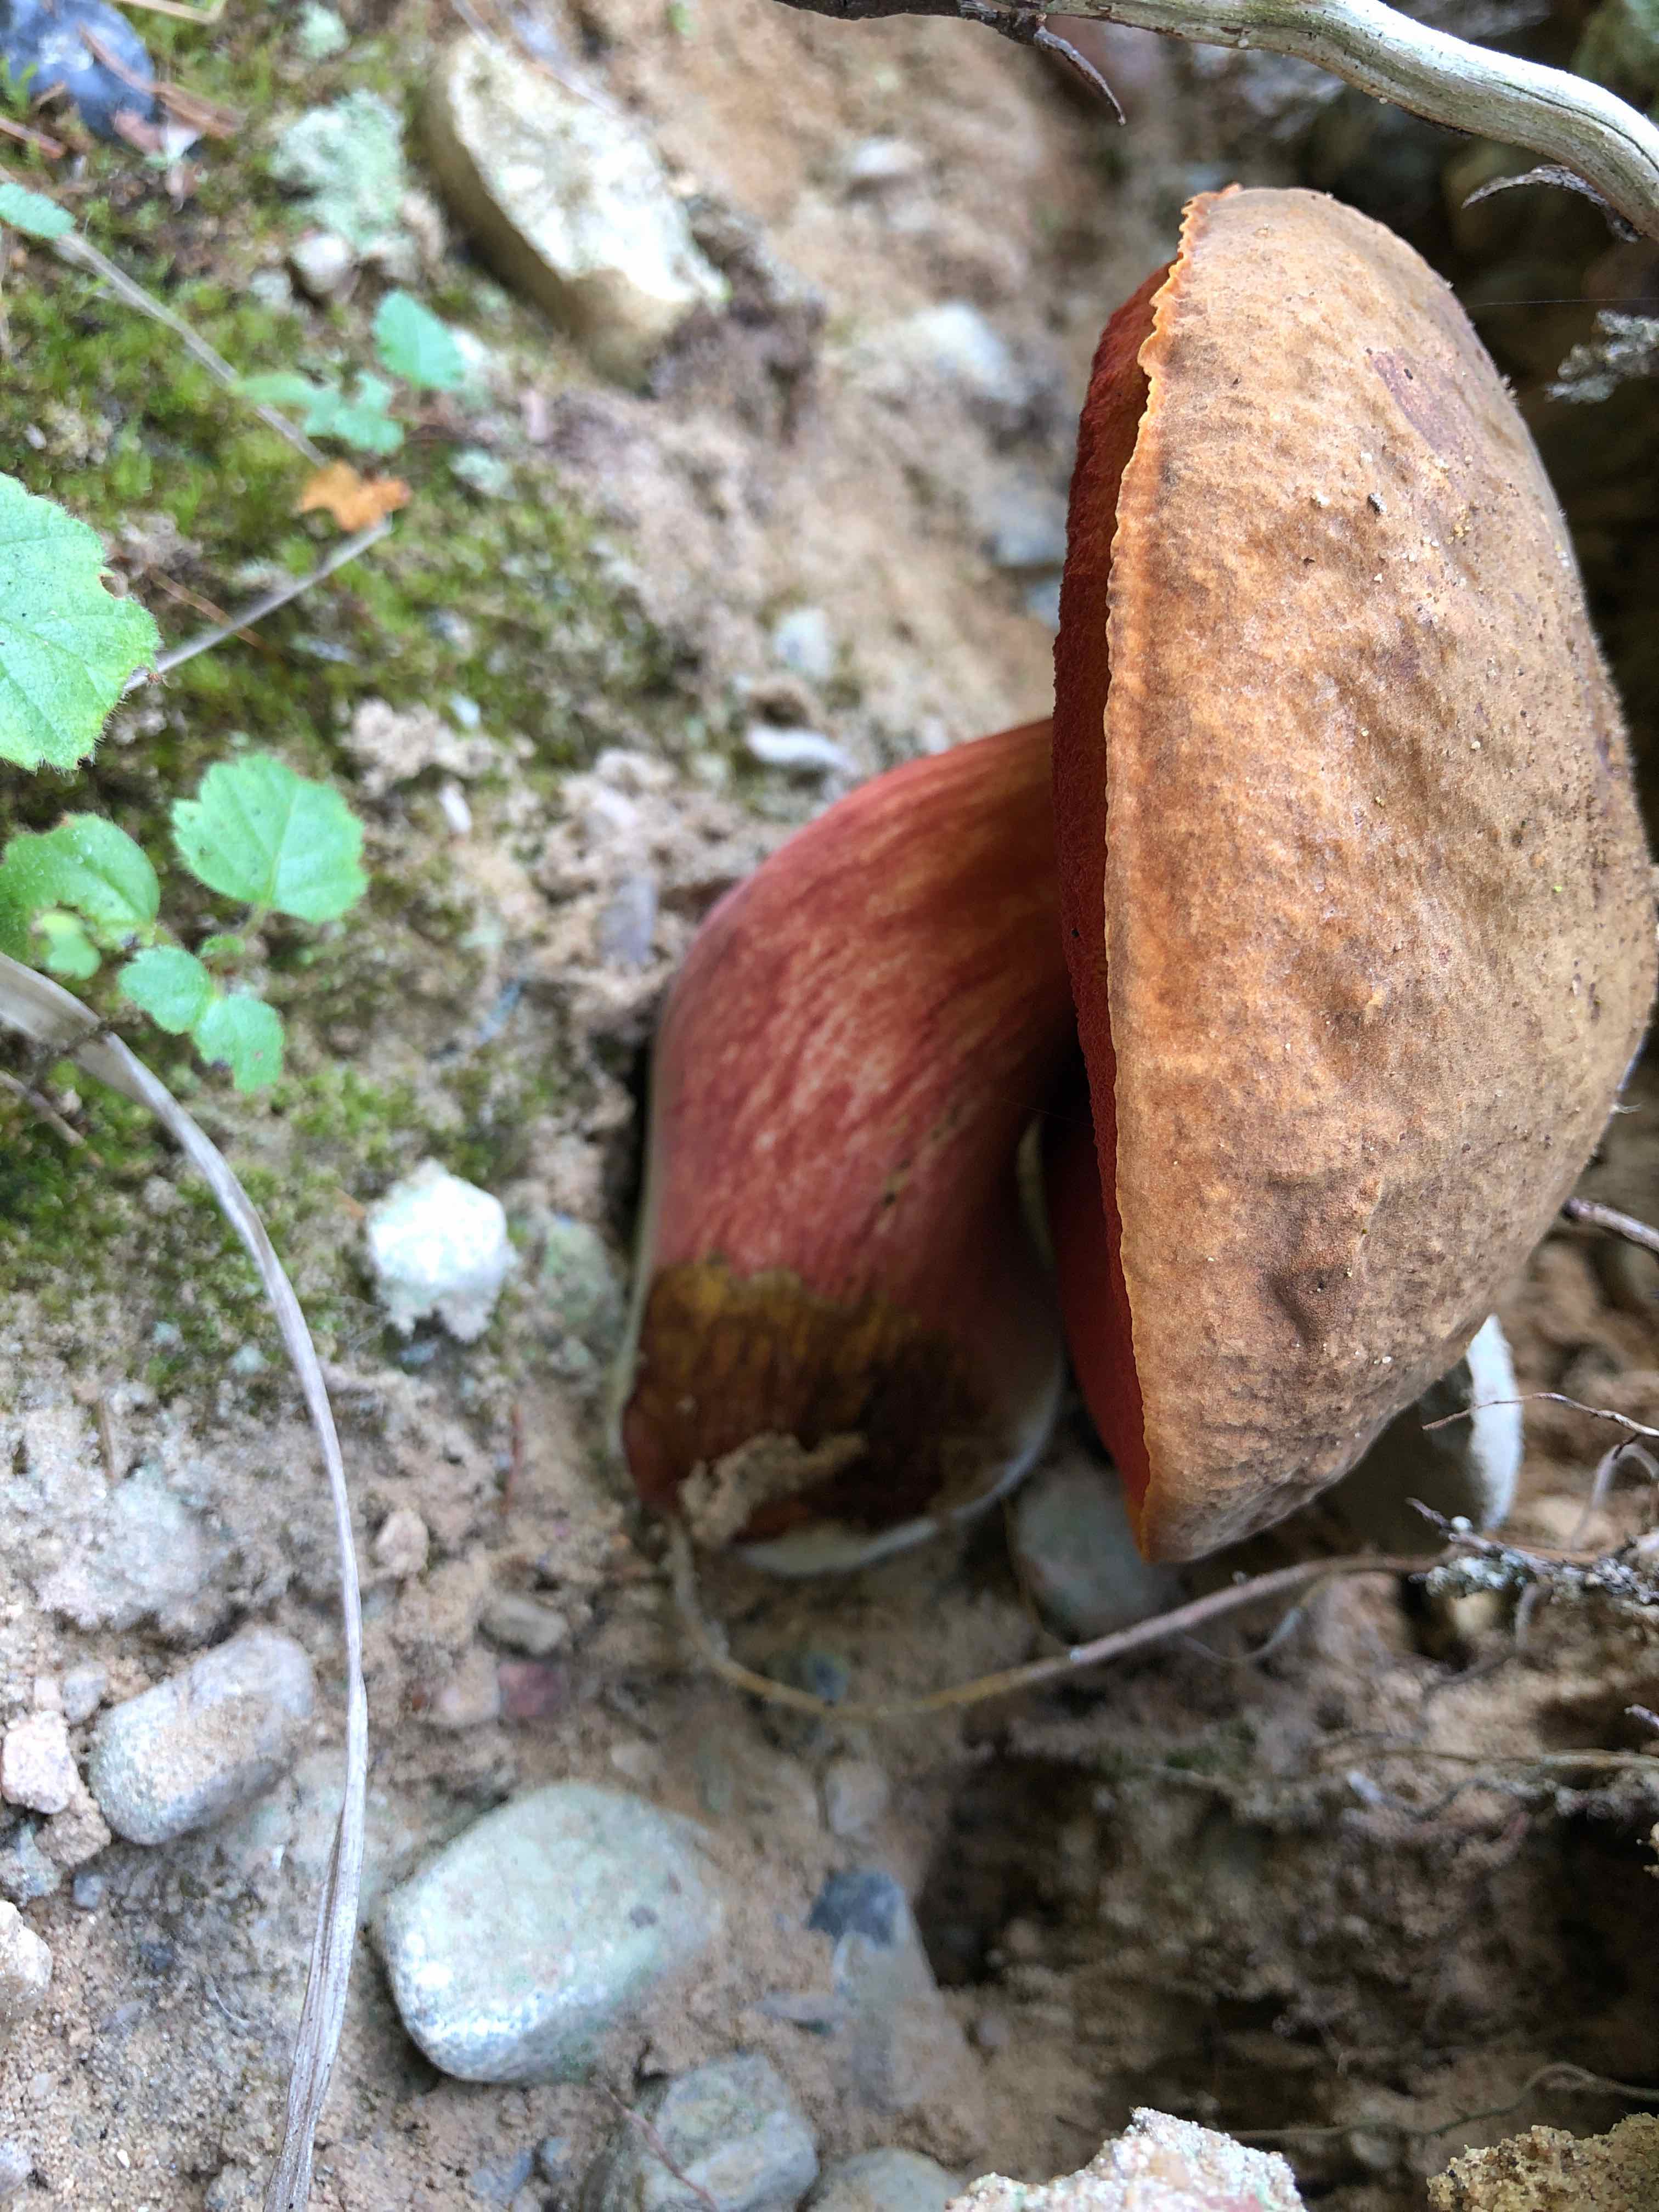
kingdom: Fungi
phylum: Basidiomycota
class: Agaricomycetes
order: Boletales
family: Boletaceae
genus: Neoboletus
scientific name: Neoboletus erythropus
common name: punktstokket indigorørhat
